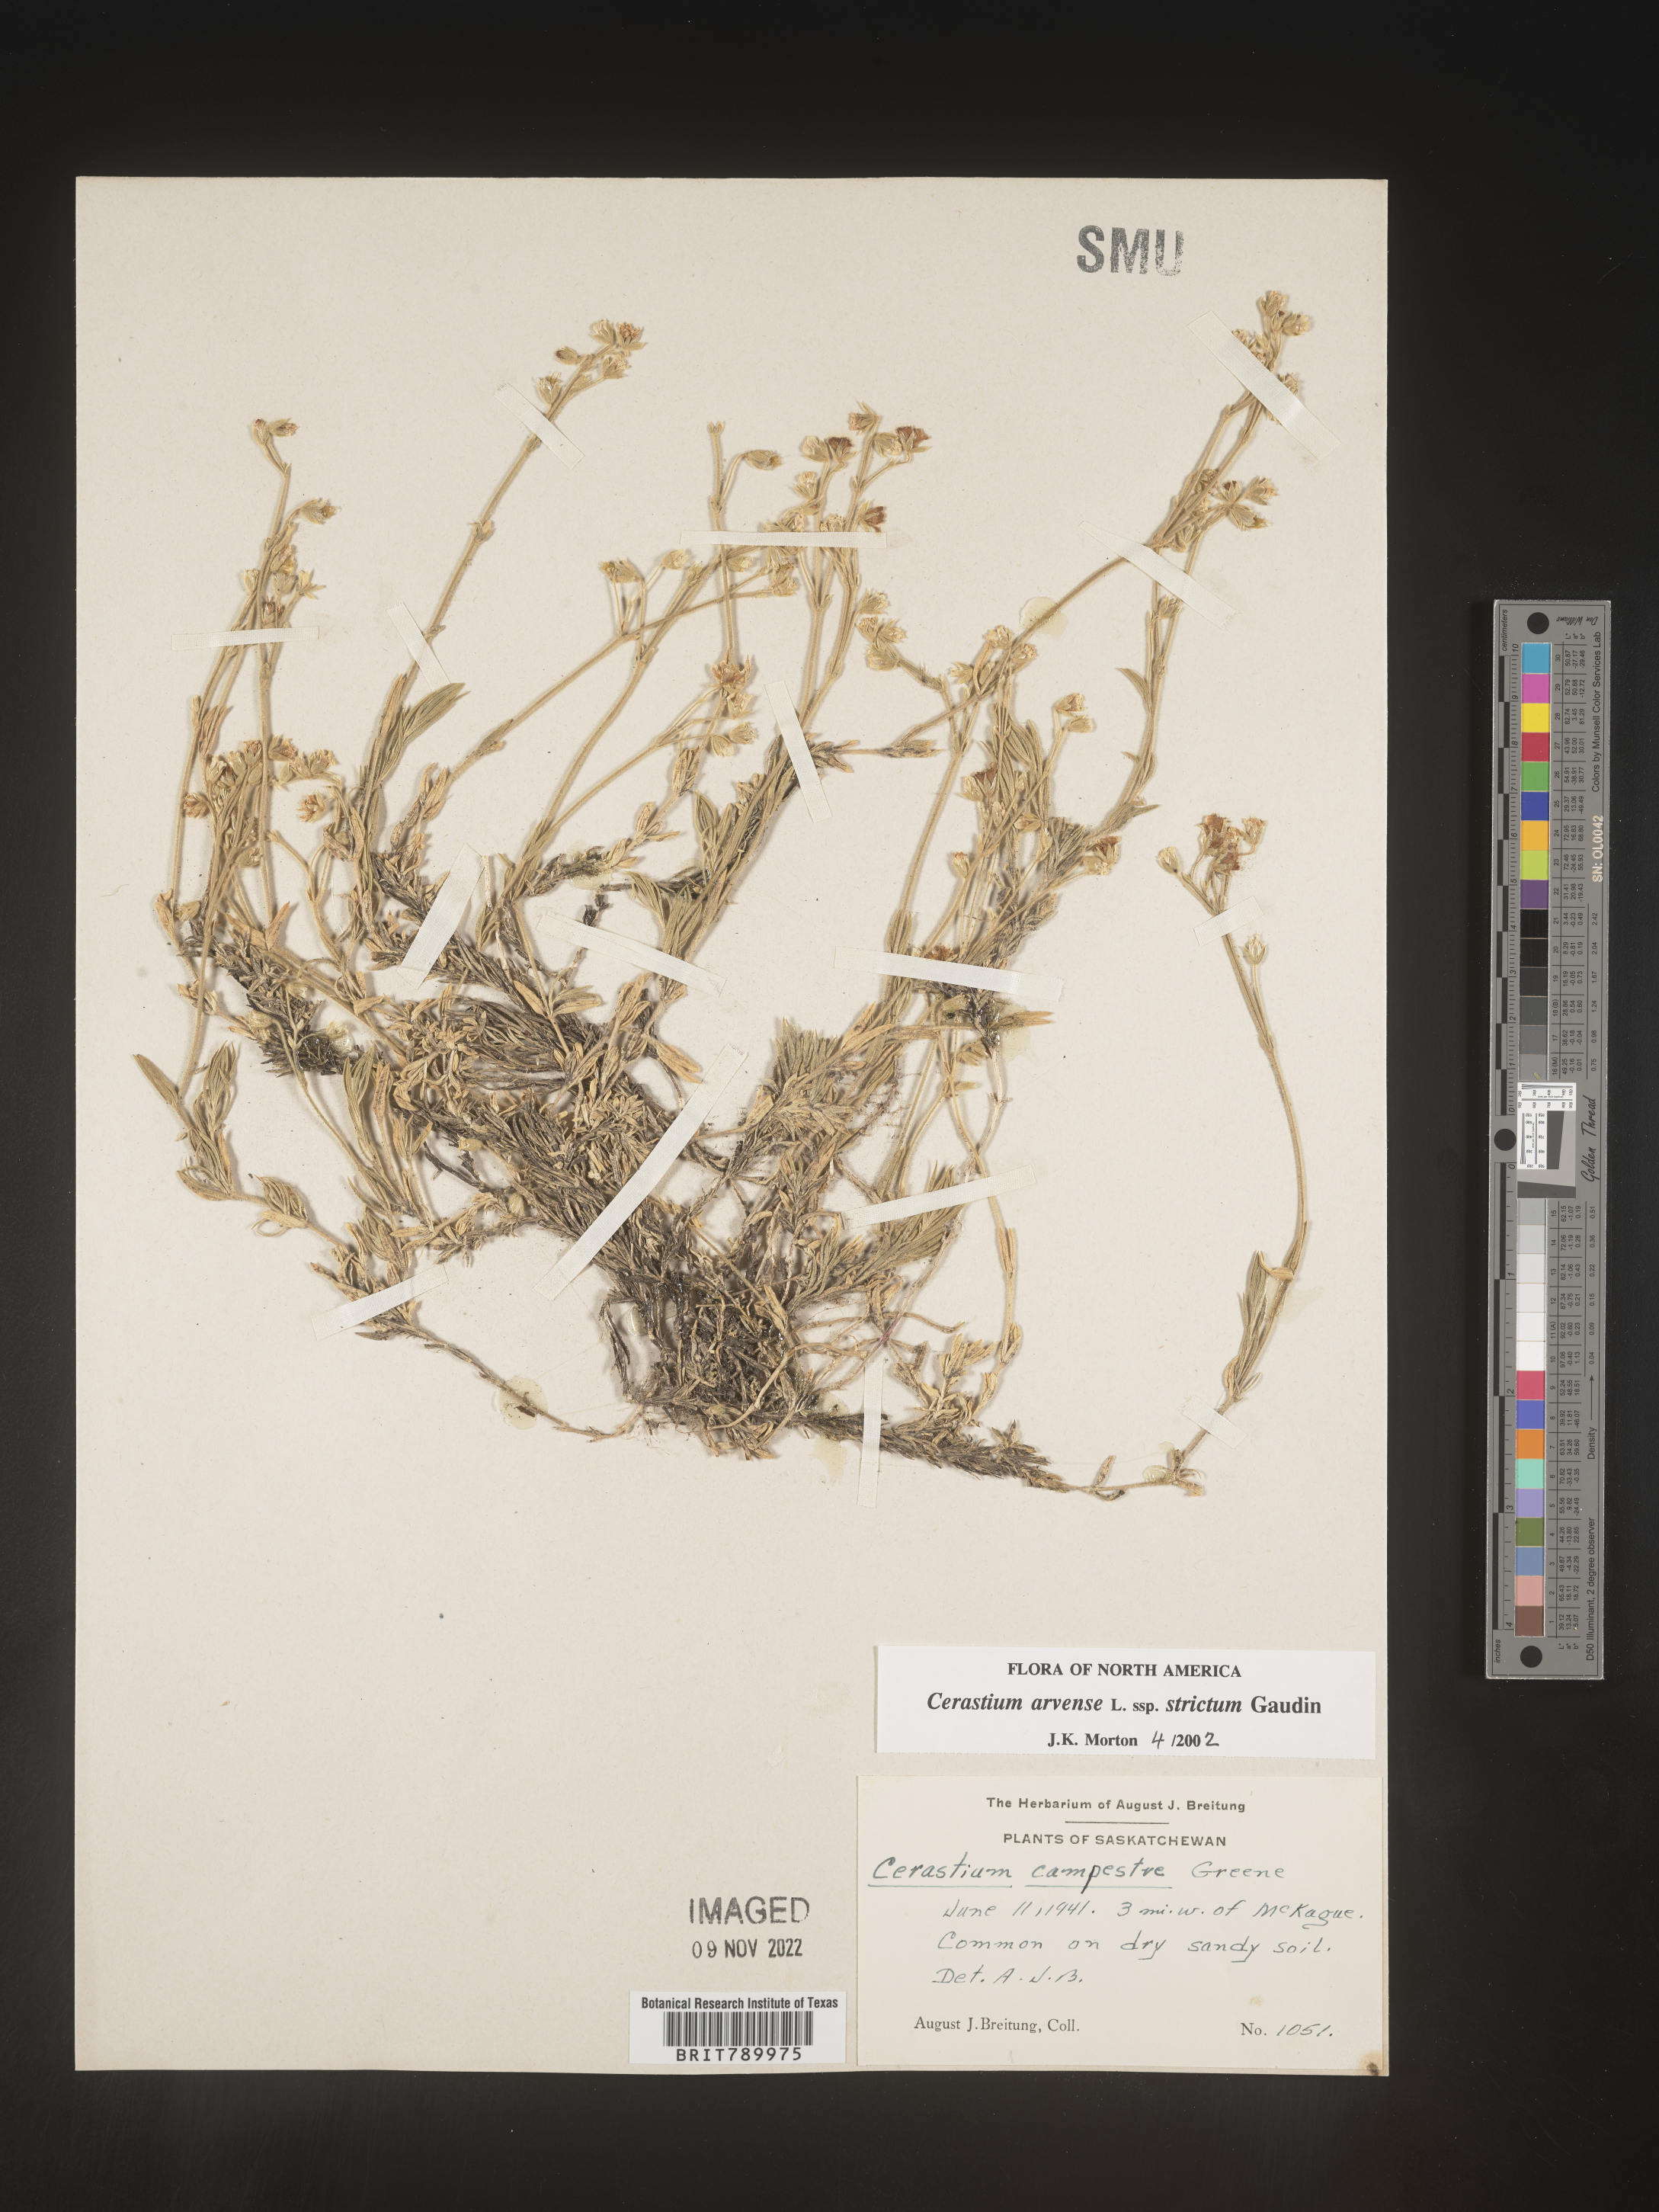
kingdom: Plantae
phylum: Tracheophyta
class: Magnoliopsida
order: Caryophyllales
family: Caryophyllaceae
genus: Cerastium
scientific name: Cerastium arvense
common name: Field mouse-ear
